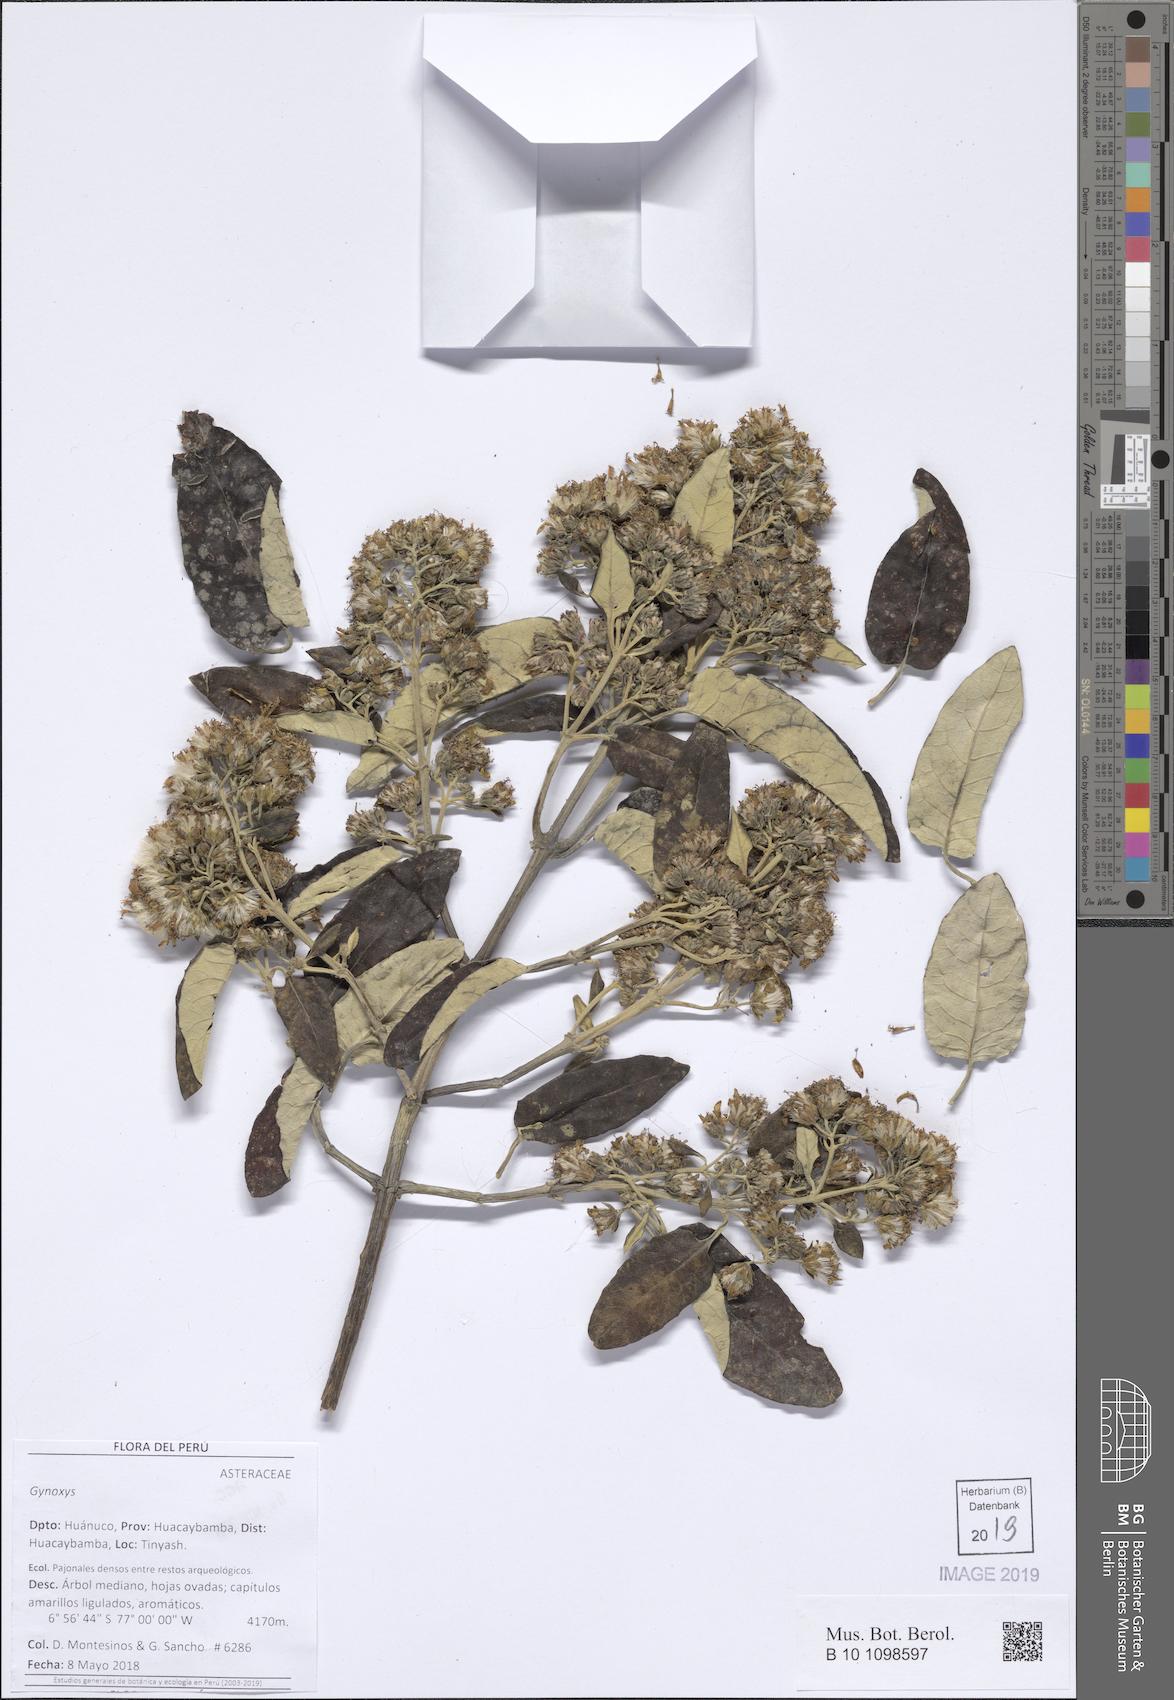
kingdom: Plantae
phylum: Tracheophyta
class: Magnoliopsida
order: Asterales
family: Asteraceae
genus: Gynoxys
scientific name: Gynoxys caracensis
